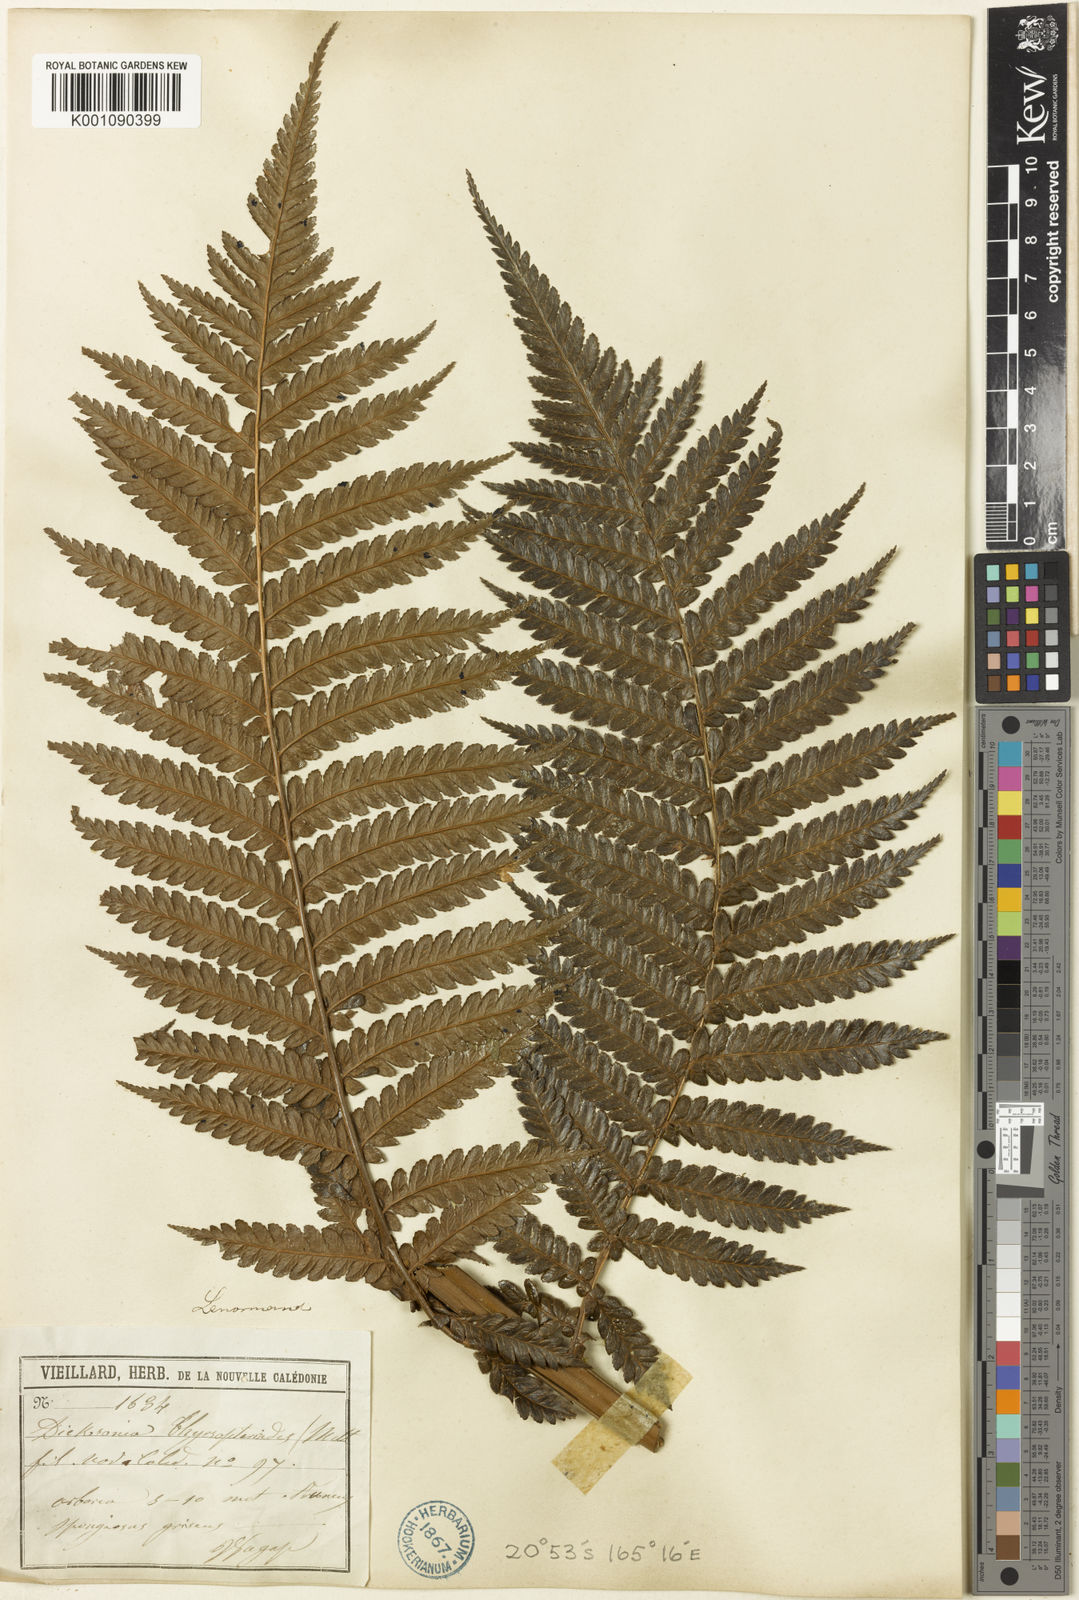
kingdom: Plantae
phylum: Tracheophyta
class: Polypodiopsida
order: Cyatheales
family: Dicksoniaceae
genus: Dicksonia
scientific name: Dicksonia thyrsopteroides
